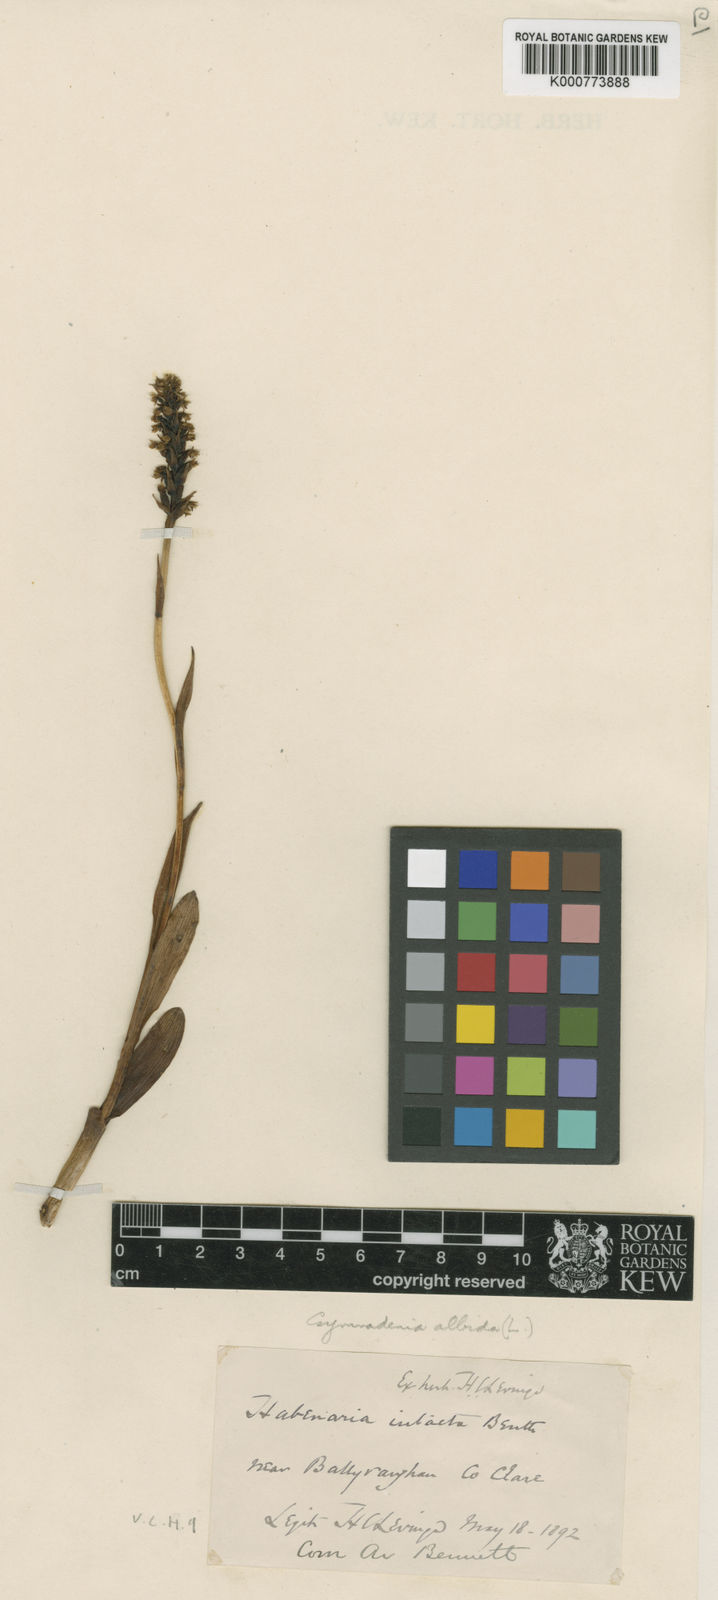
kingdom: Plantae
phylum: Tracheophyta
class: Liliopsida
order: Asparagales
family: Orchidaceae
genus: Pseudorchis
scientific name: Pseudorchis
